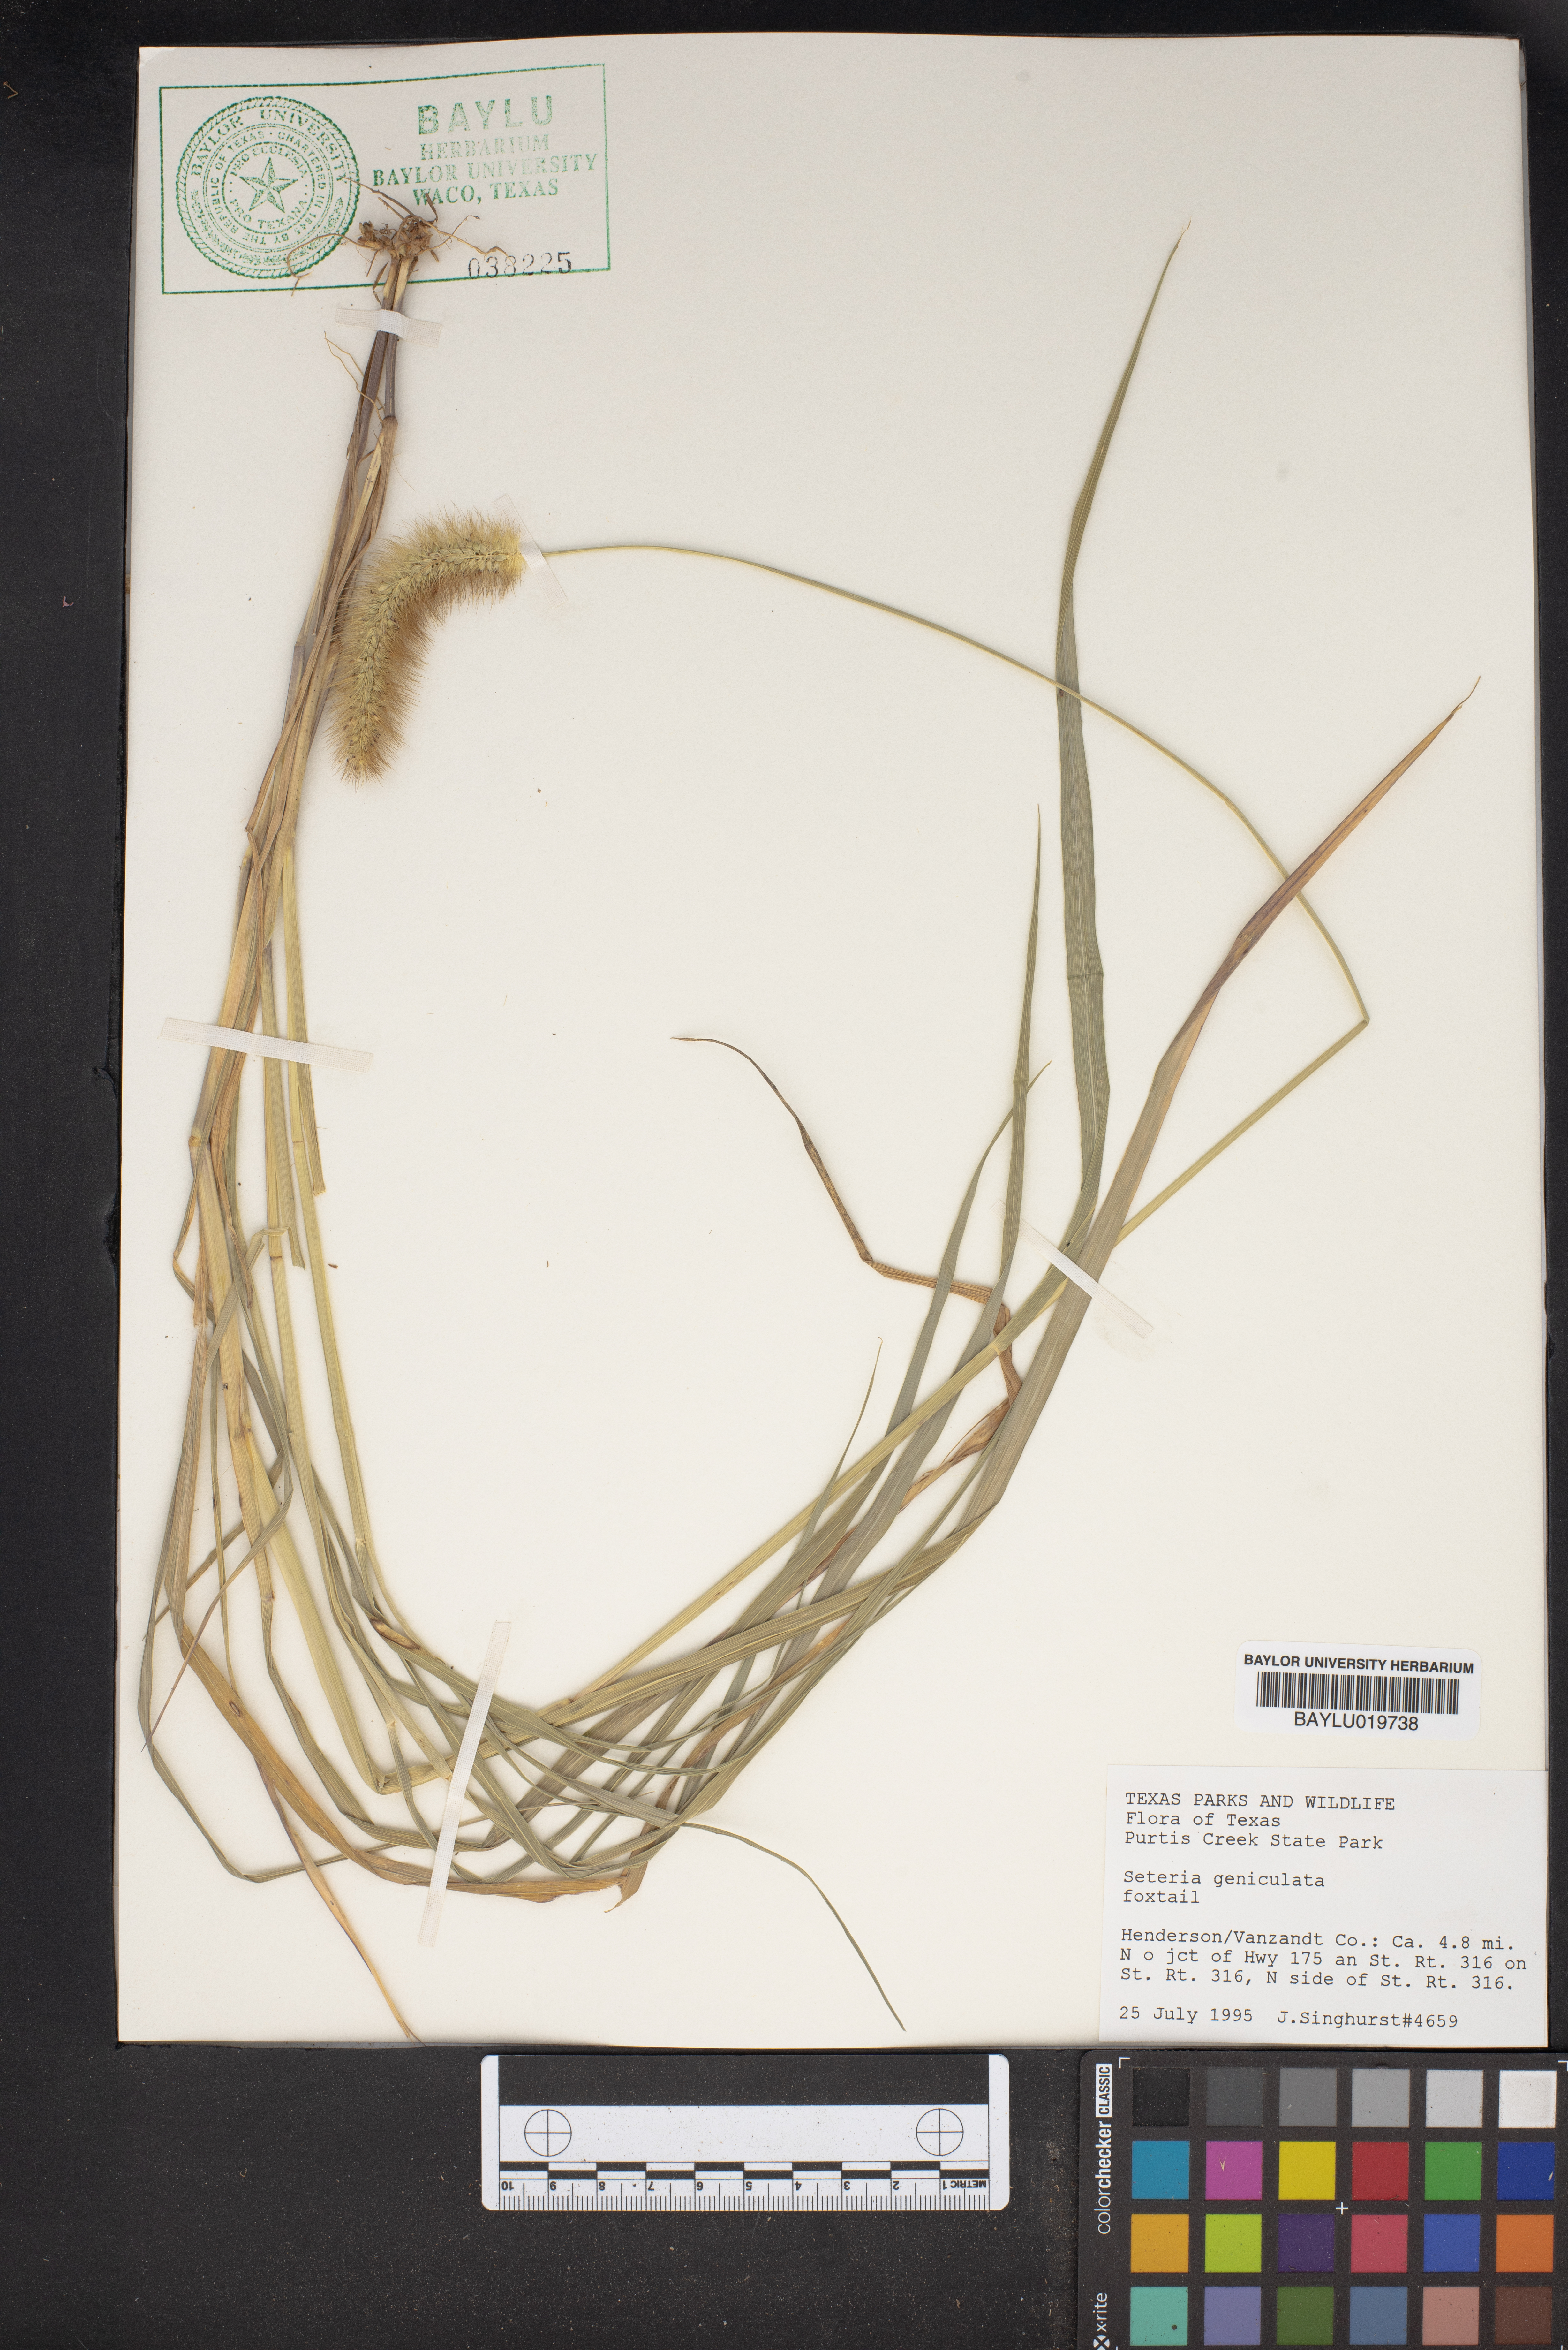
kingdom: Plantae
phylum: Tracheophyta
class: Liliopsida
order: Poales
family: Poaceae
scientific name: Poaceae
